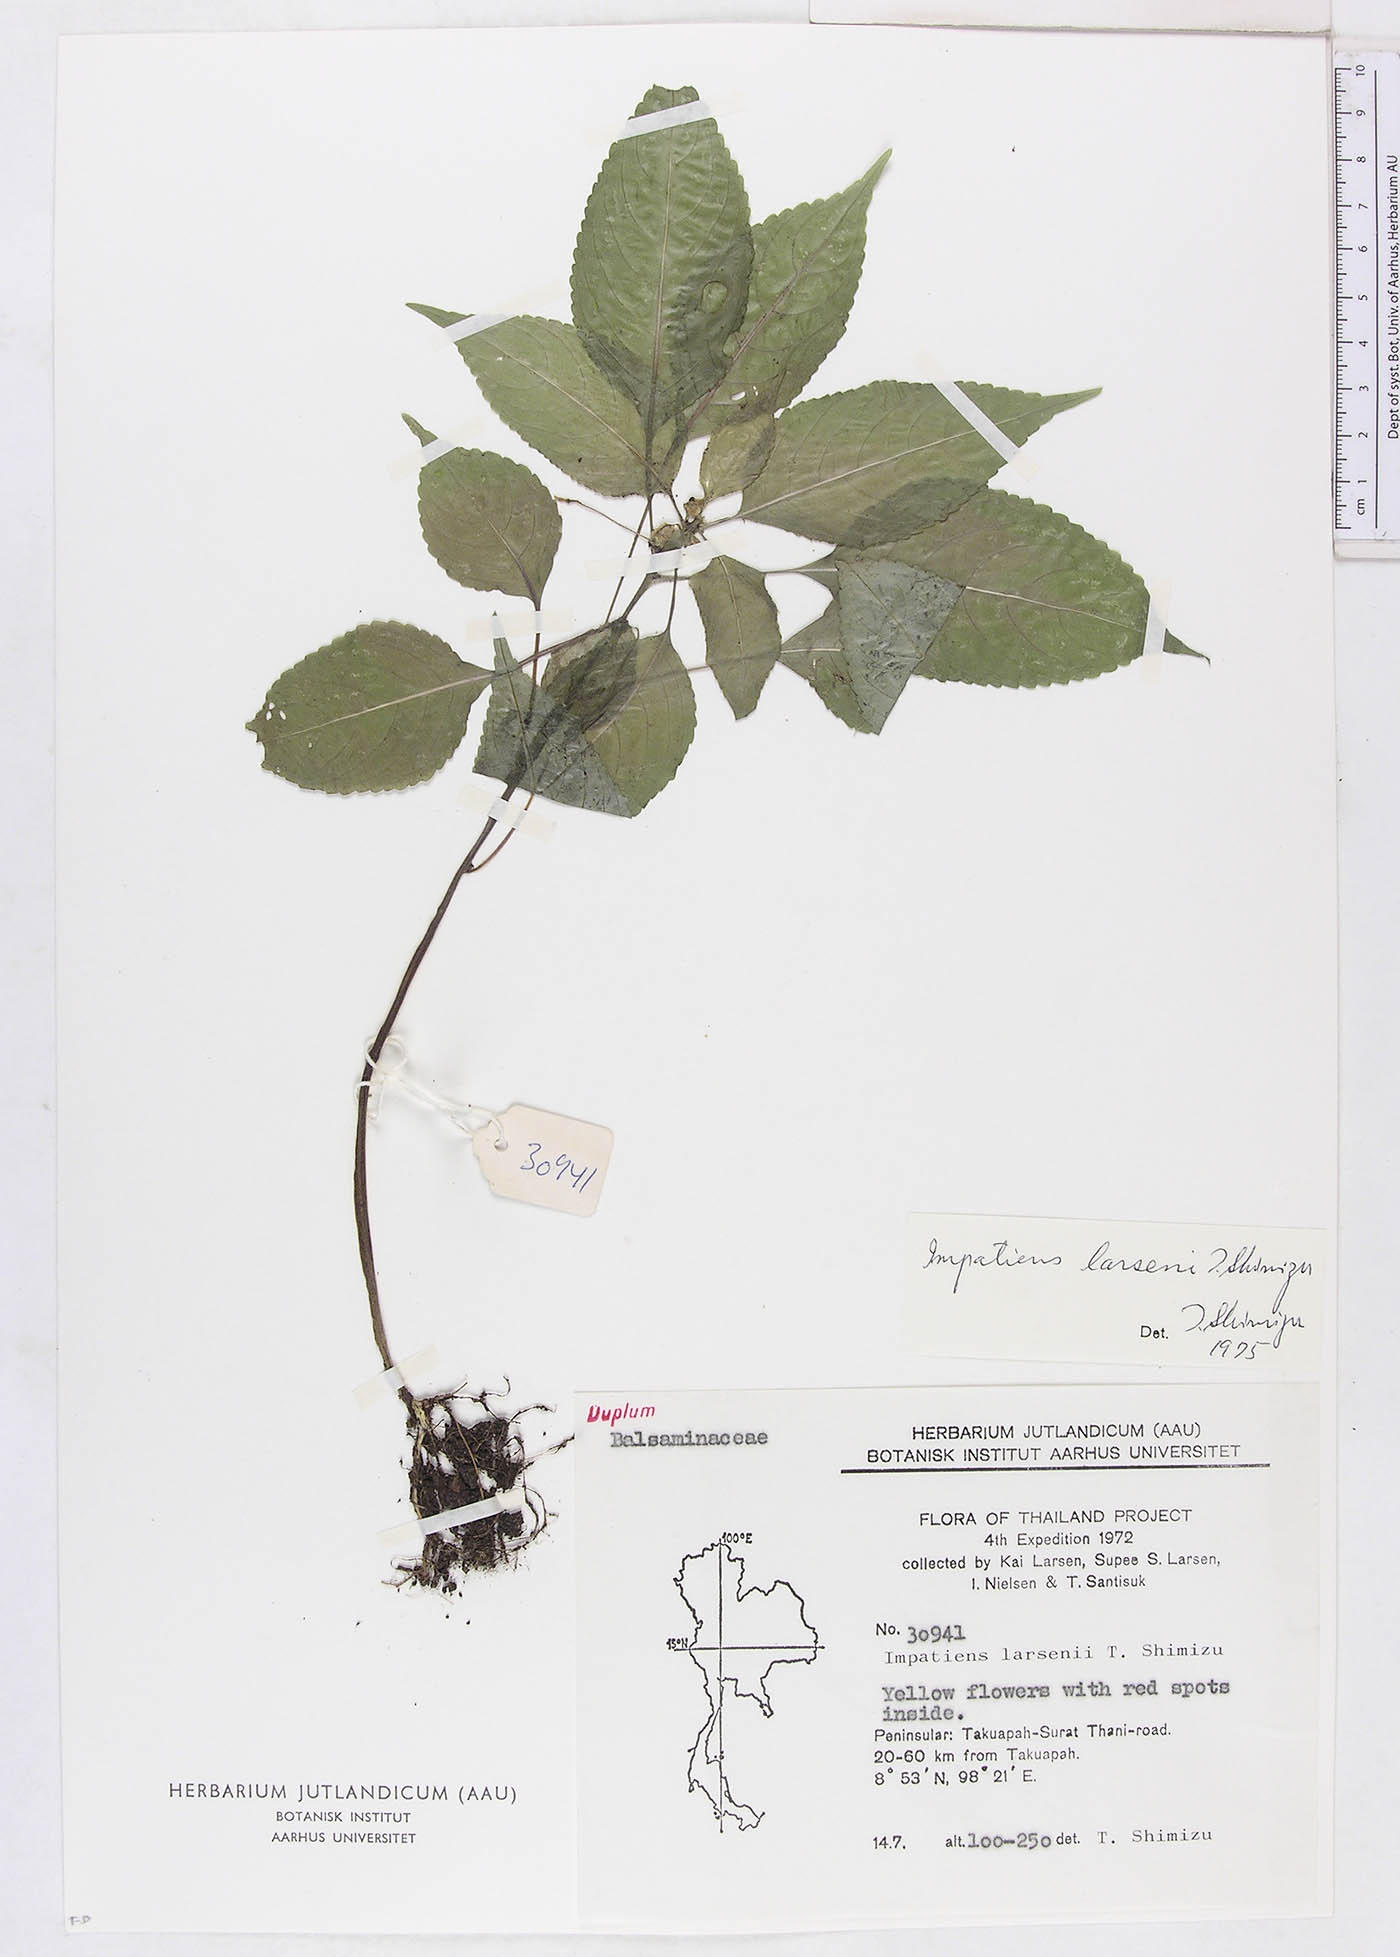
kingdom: Plantae
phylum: Tracheophyta
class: Magnoliopsida
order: Ericales
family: Balsaminaceae
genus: Impatiens
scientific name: Impatiens larsenii
